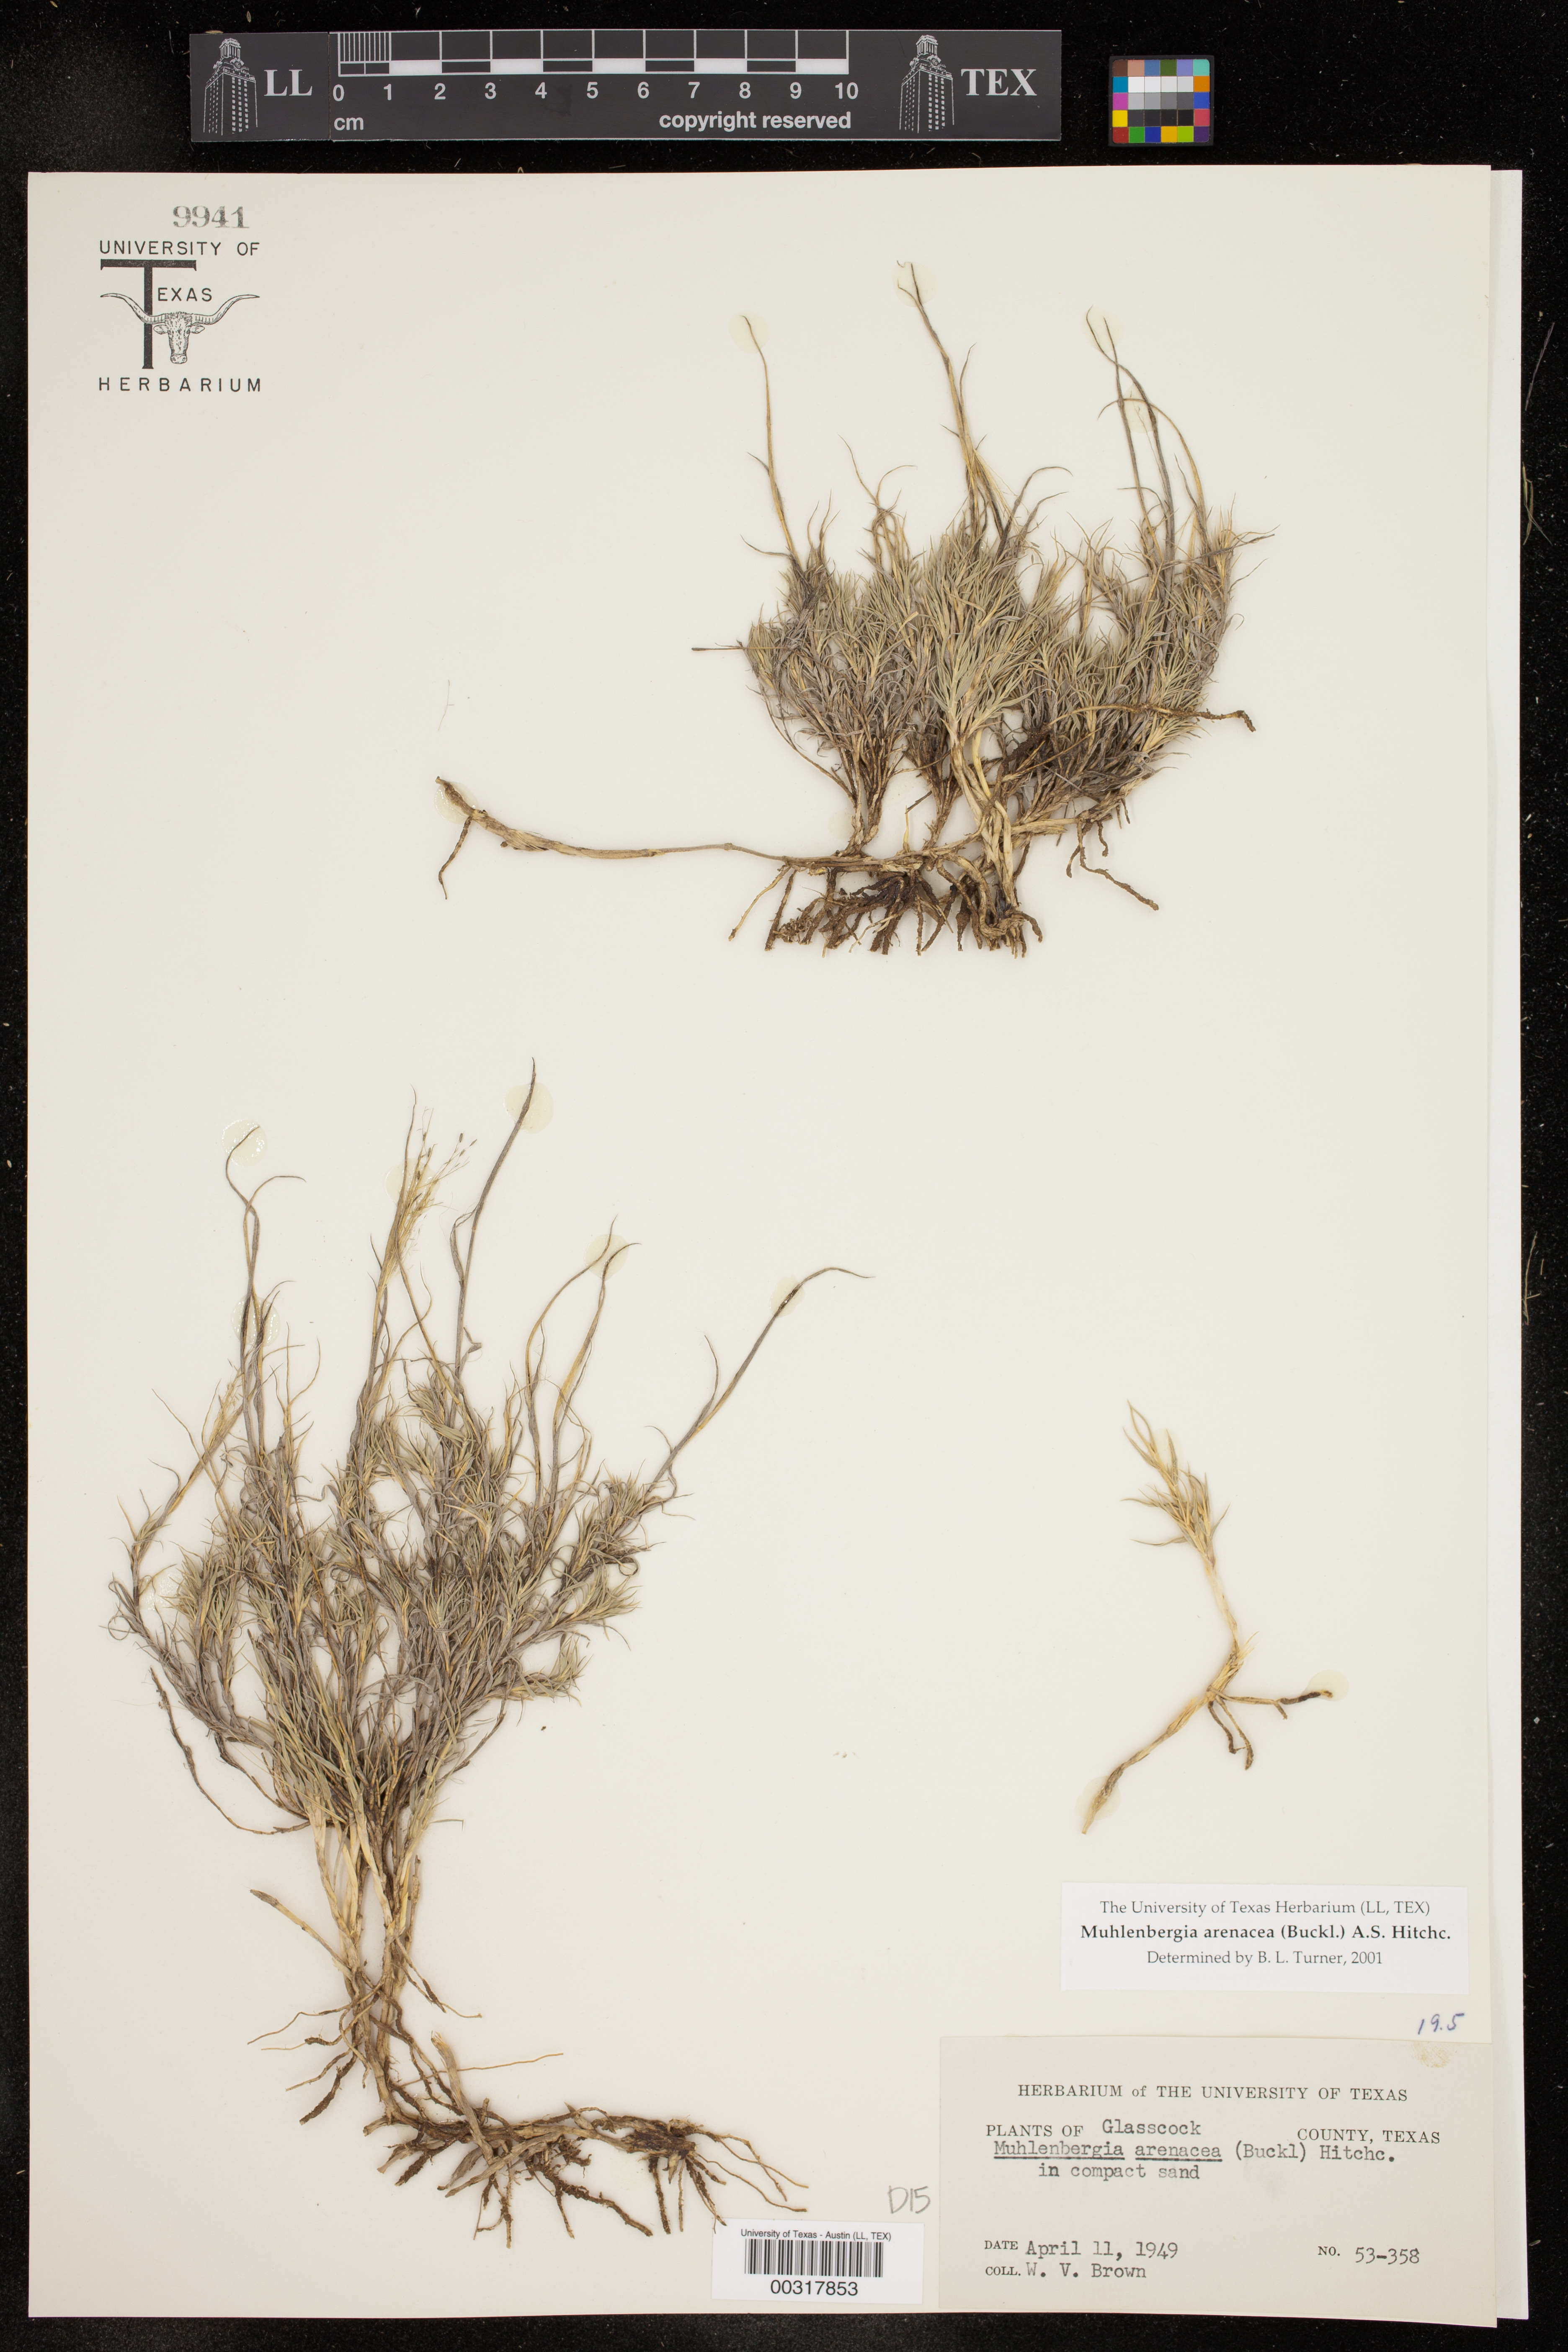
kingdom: Plantae
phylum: Tracheophyta
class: Liliopsida
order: Poales
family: Poaceae
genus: Muhlenbergia
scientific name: Muhlenbergia arenacea
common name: Ear muhly
